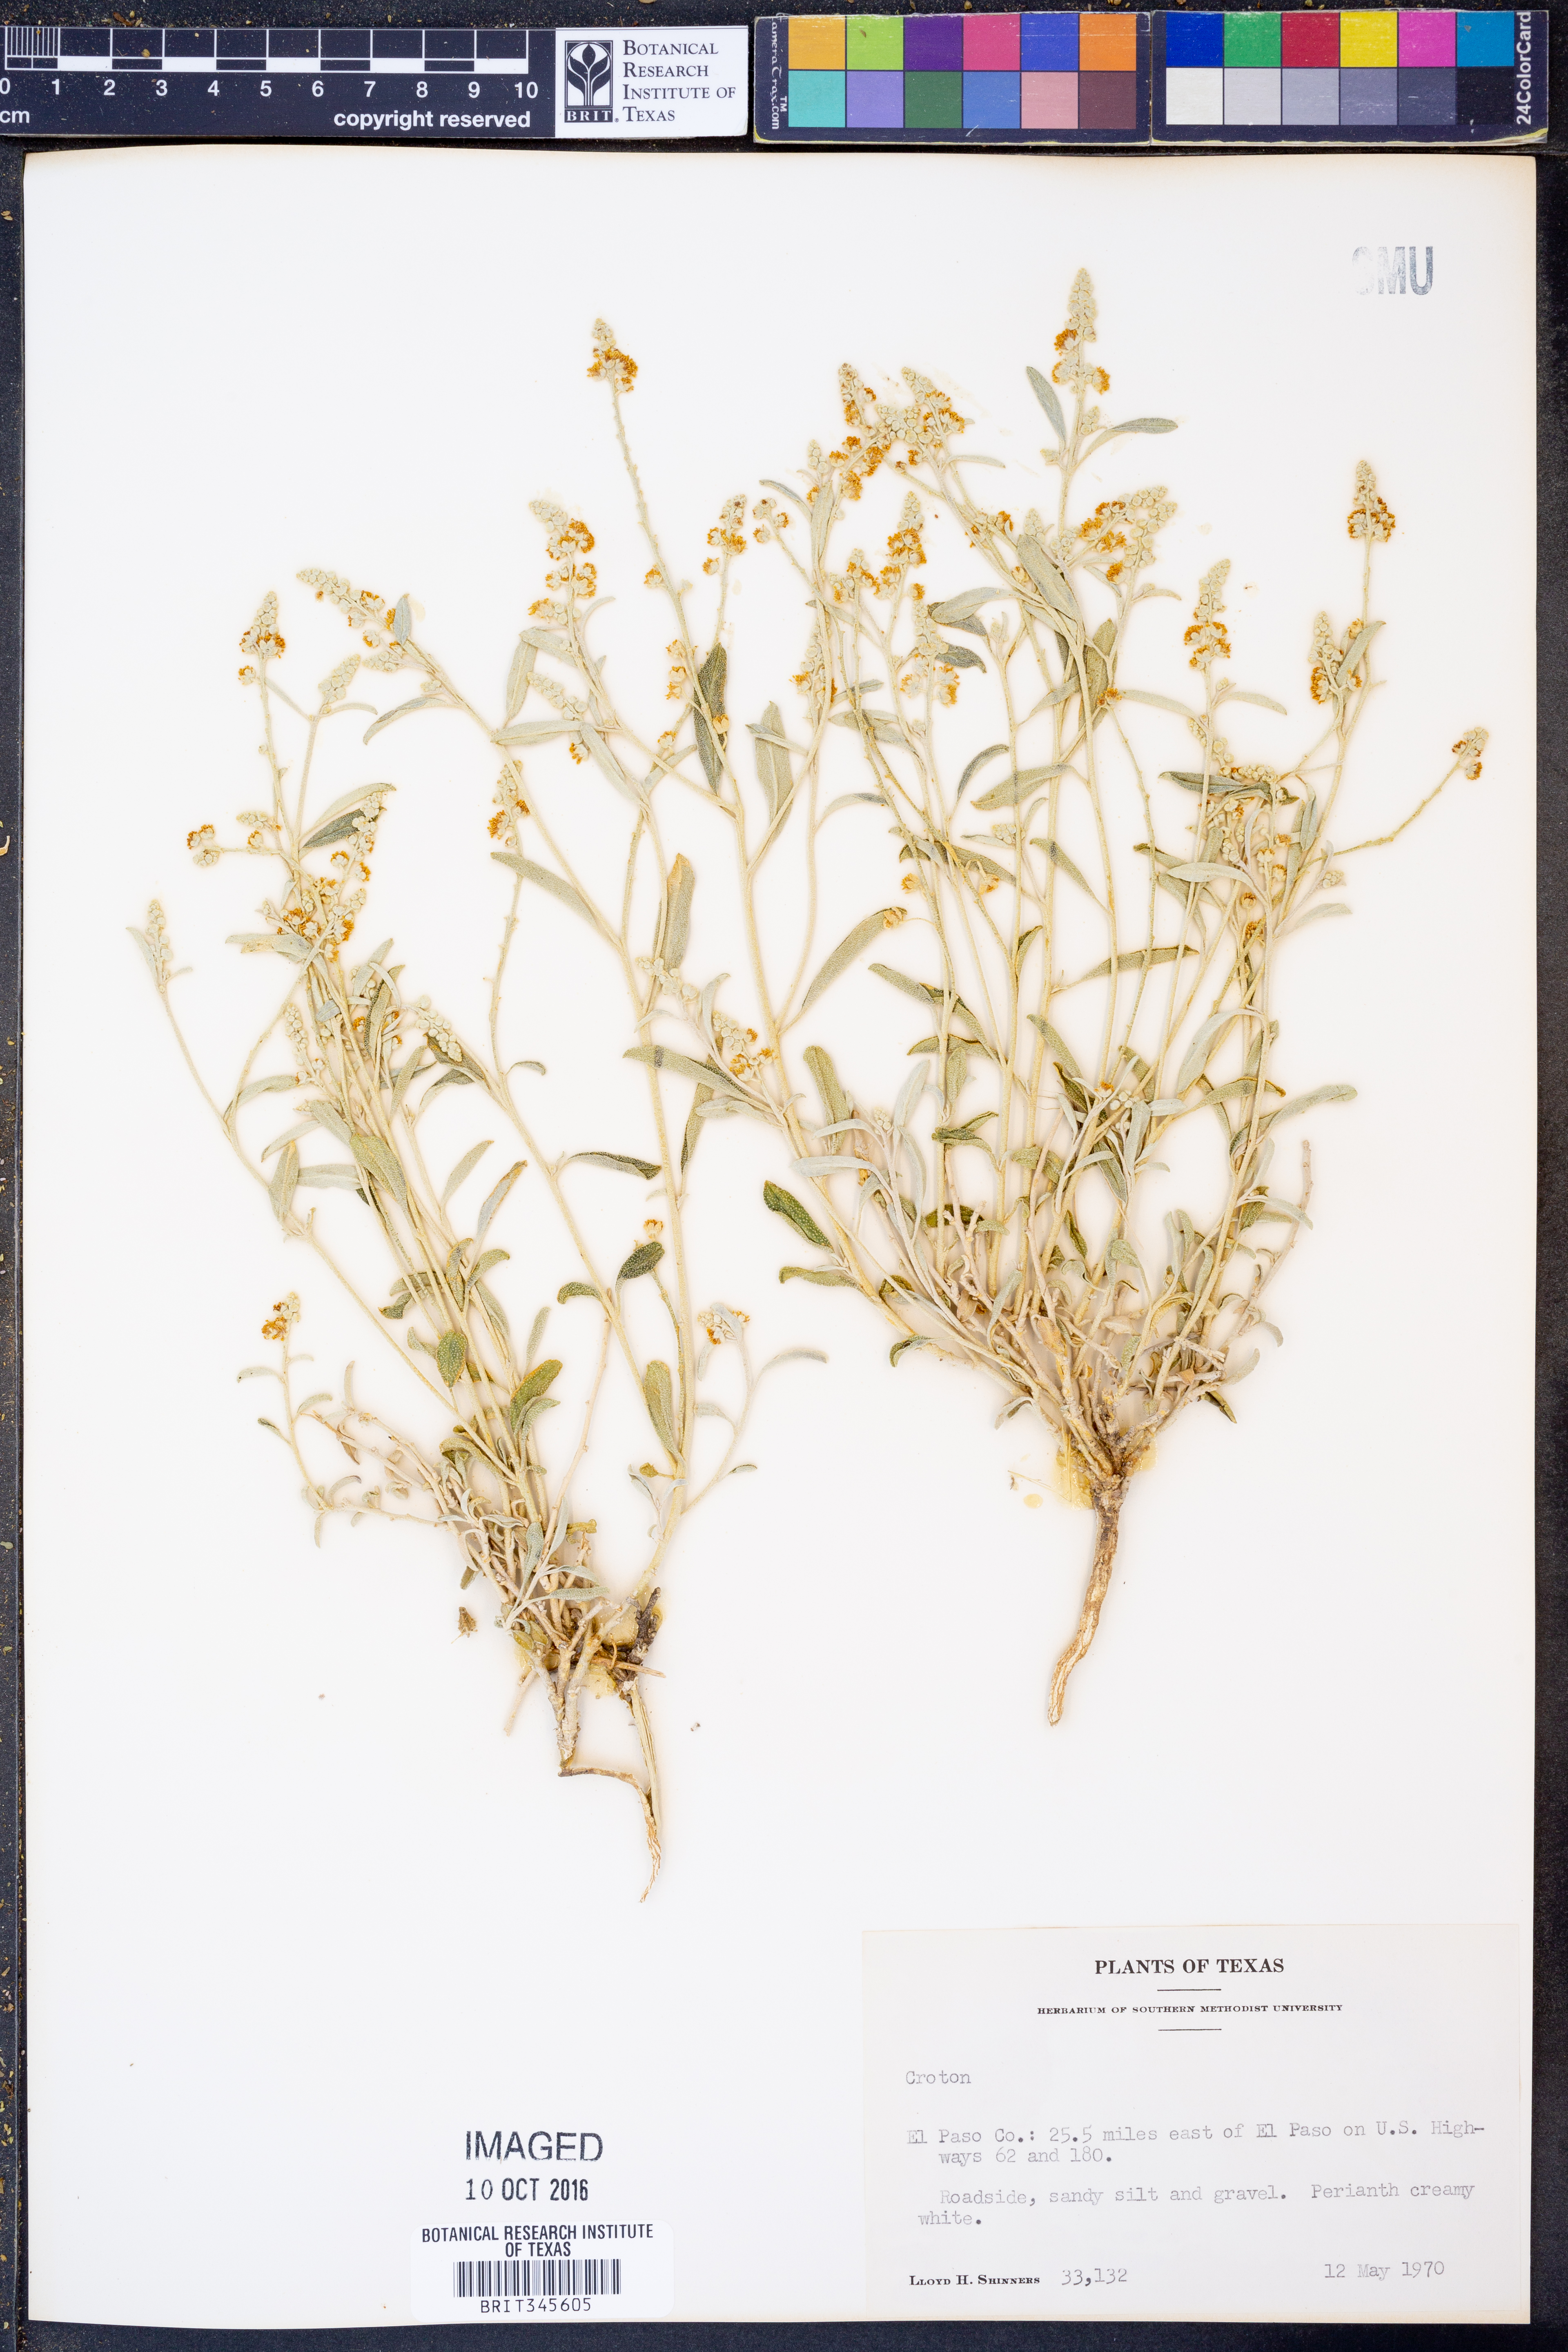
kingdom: Plantae
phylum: Tracheophyta
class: Magnoliopsida
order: Malpighiales
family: Euphorbiaceae
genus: Croton
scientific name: Croton
